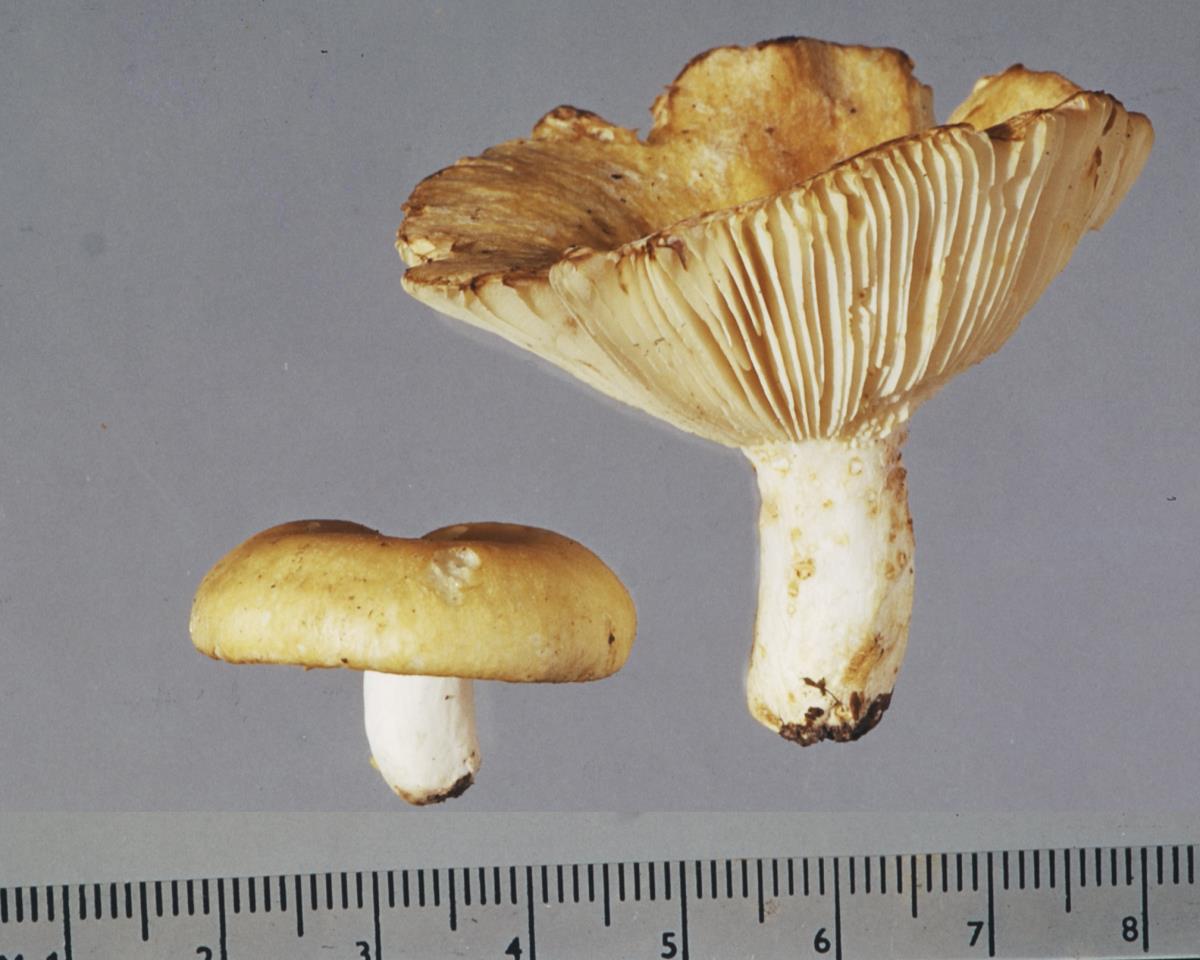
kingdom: Fungi
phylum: Basidiomycota
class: Agaricomycetes
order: Russulales
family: Russulaceae
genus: Russula
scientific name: Russula cremeo-ochracea
